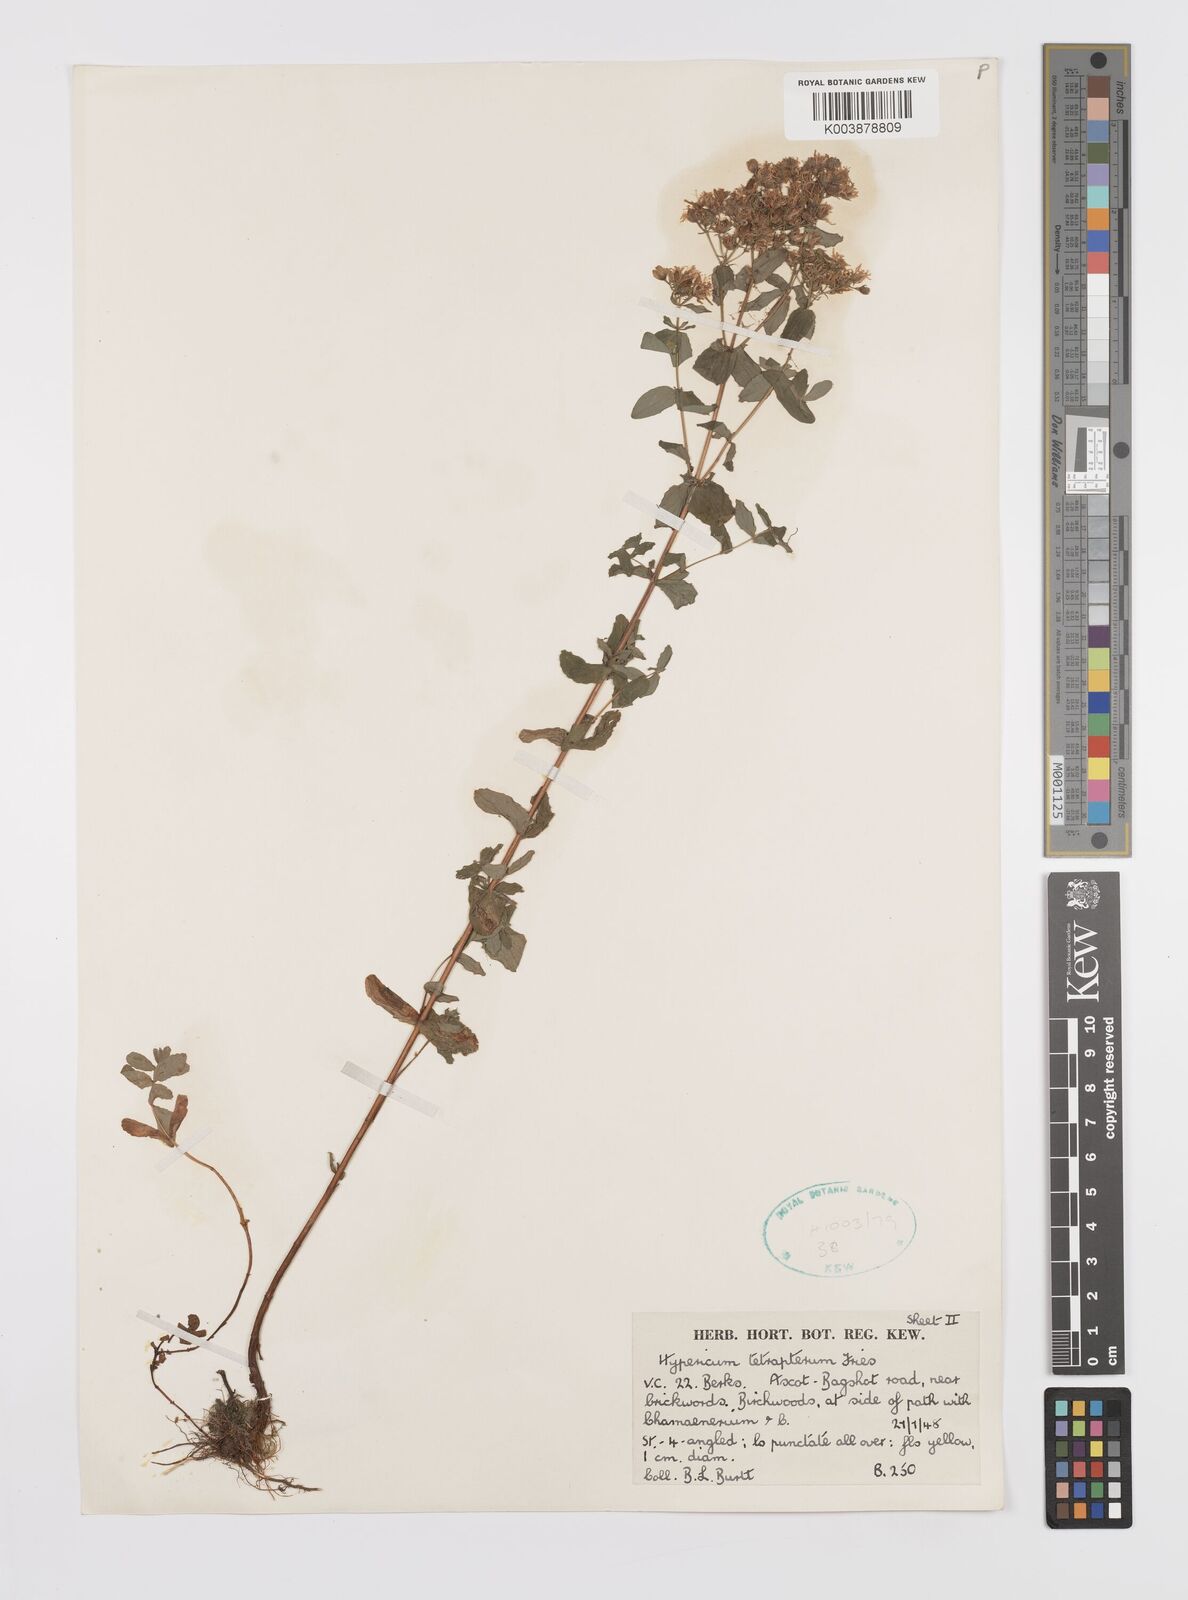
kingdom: Plantae
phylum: Tracheophyta
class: Magnoliopsida
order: Malpighiales
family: Hypericaceae
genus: Hypericum
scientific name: Hypericum tetrapterum
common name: Square-stalked st. john's-wort
